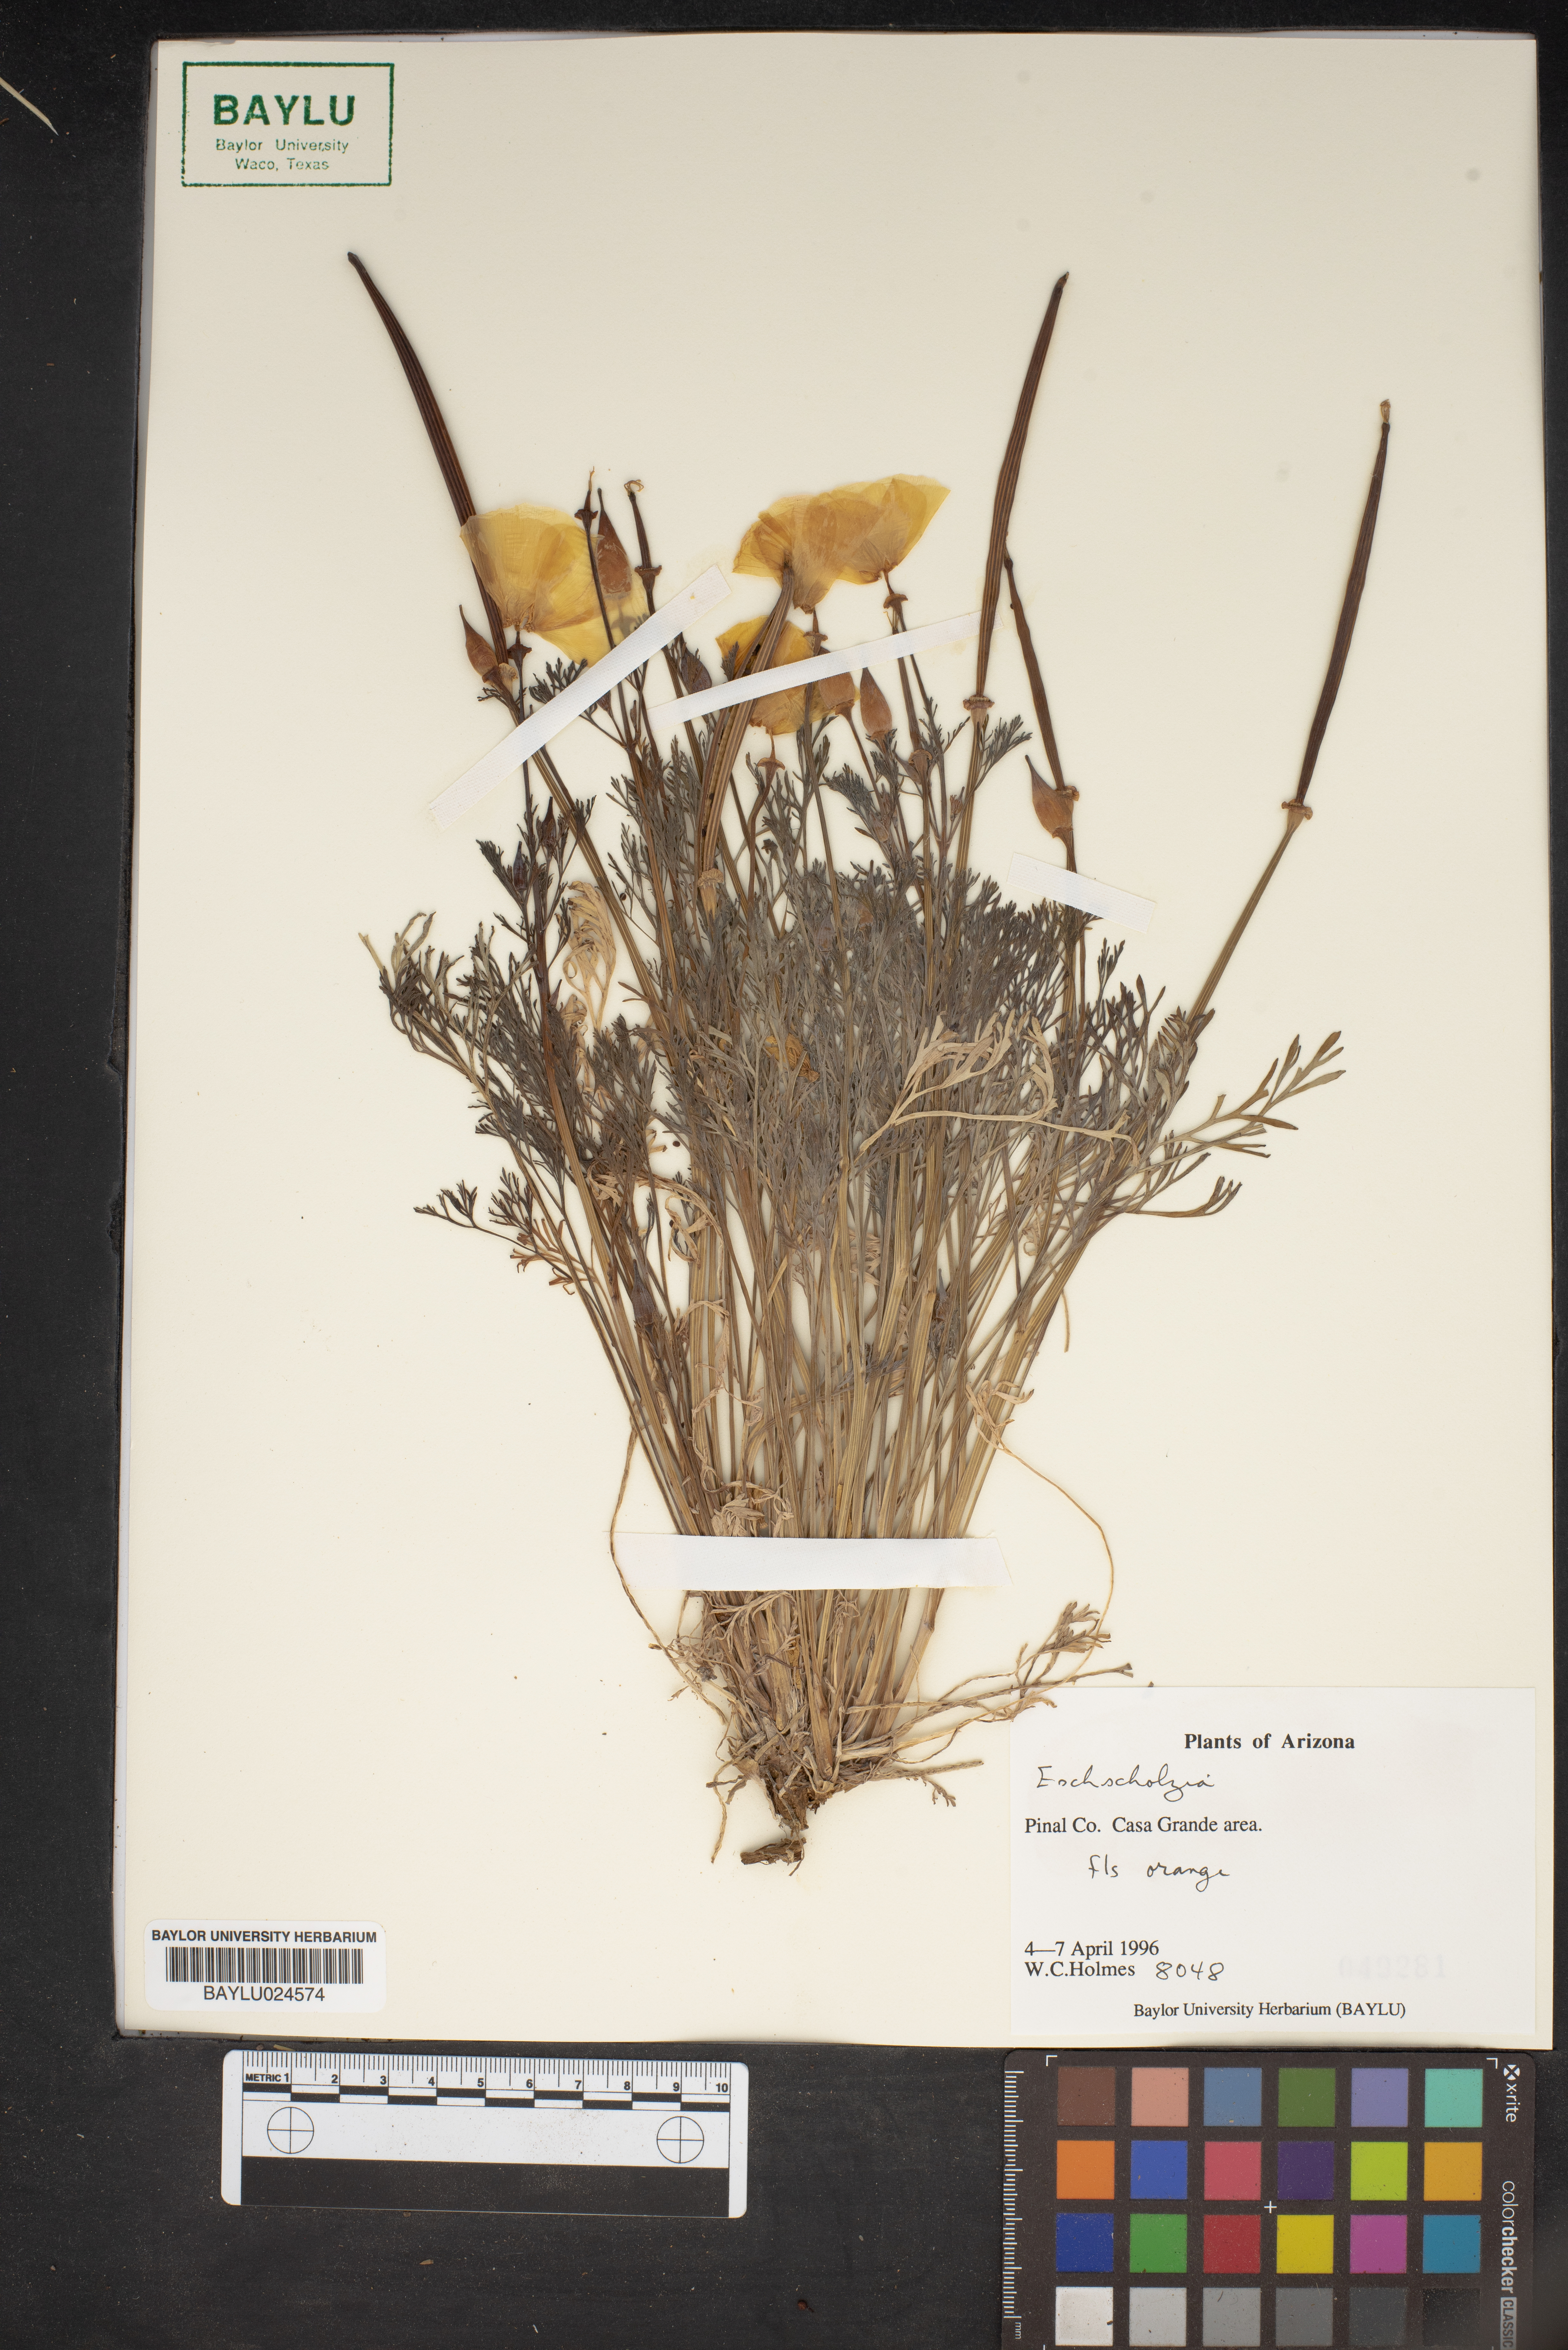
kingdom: Plantae
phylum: Tracheophyta
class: Magnoliopsida
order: Ranunculales
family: Papaveraceae
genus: Eschscholzia
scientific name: Eschscholzia
